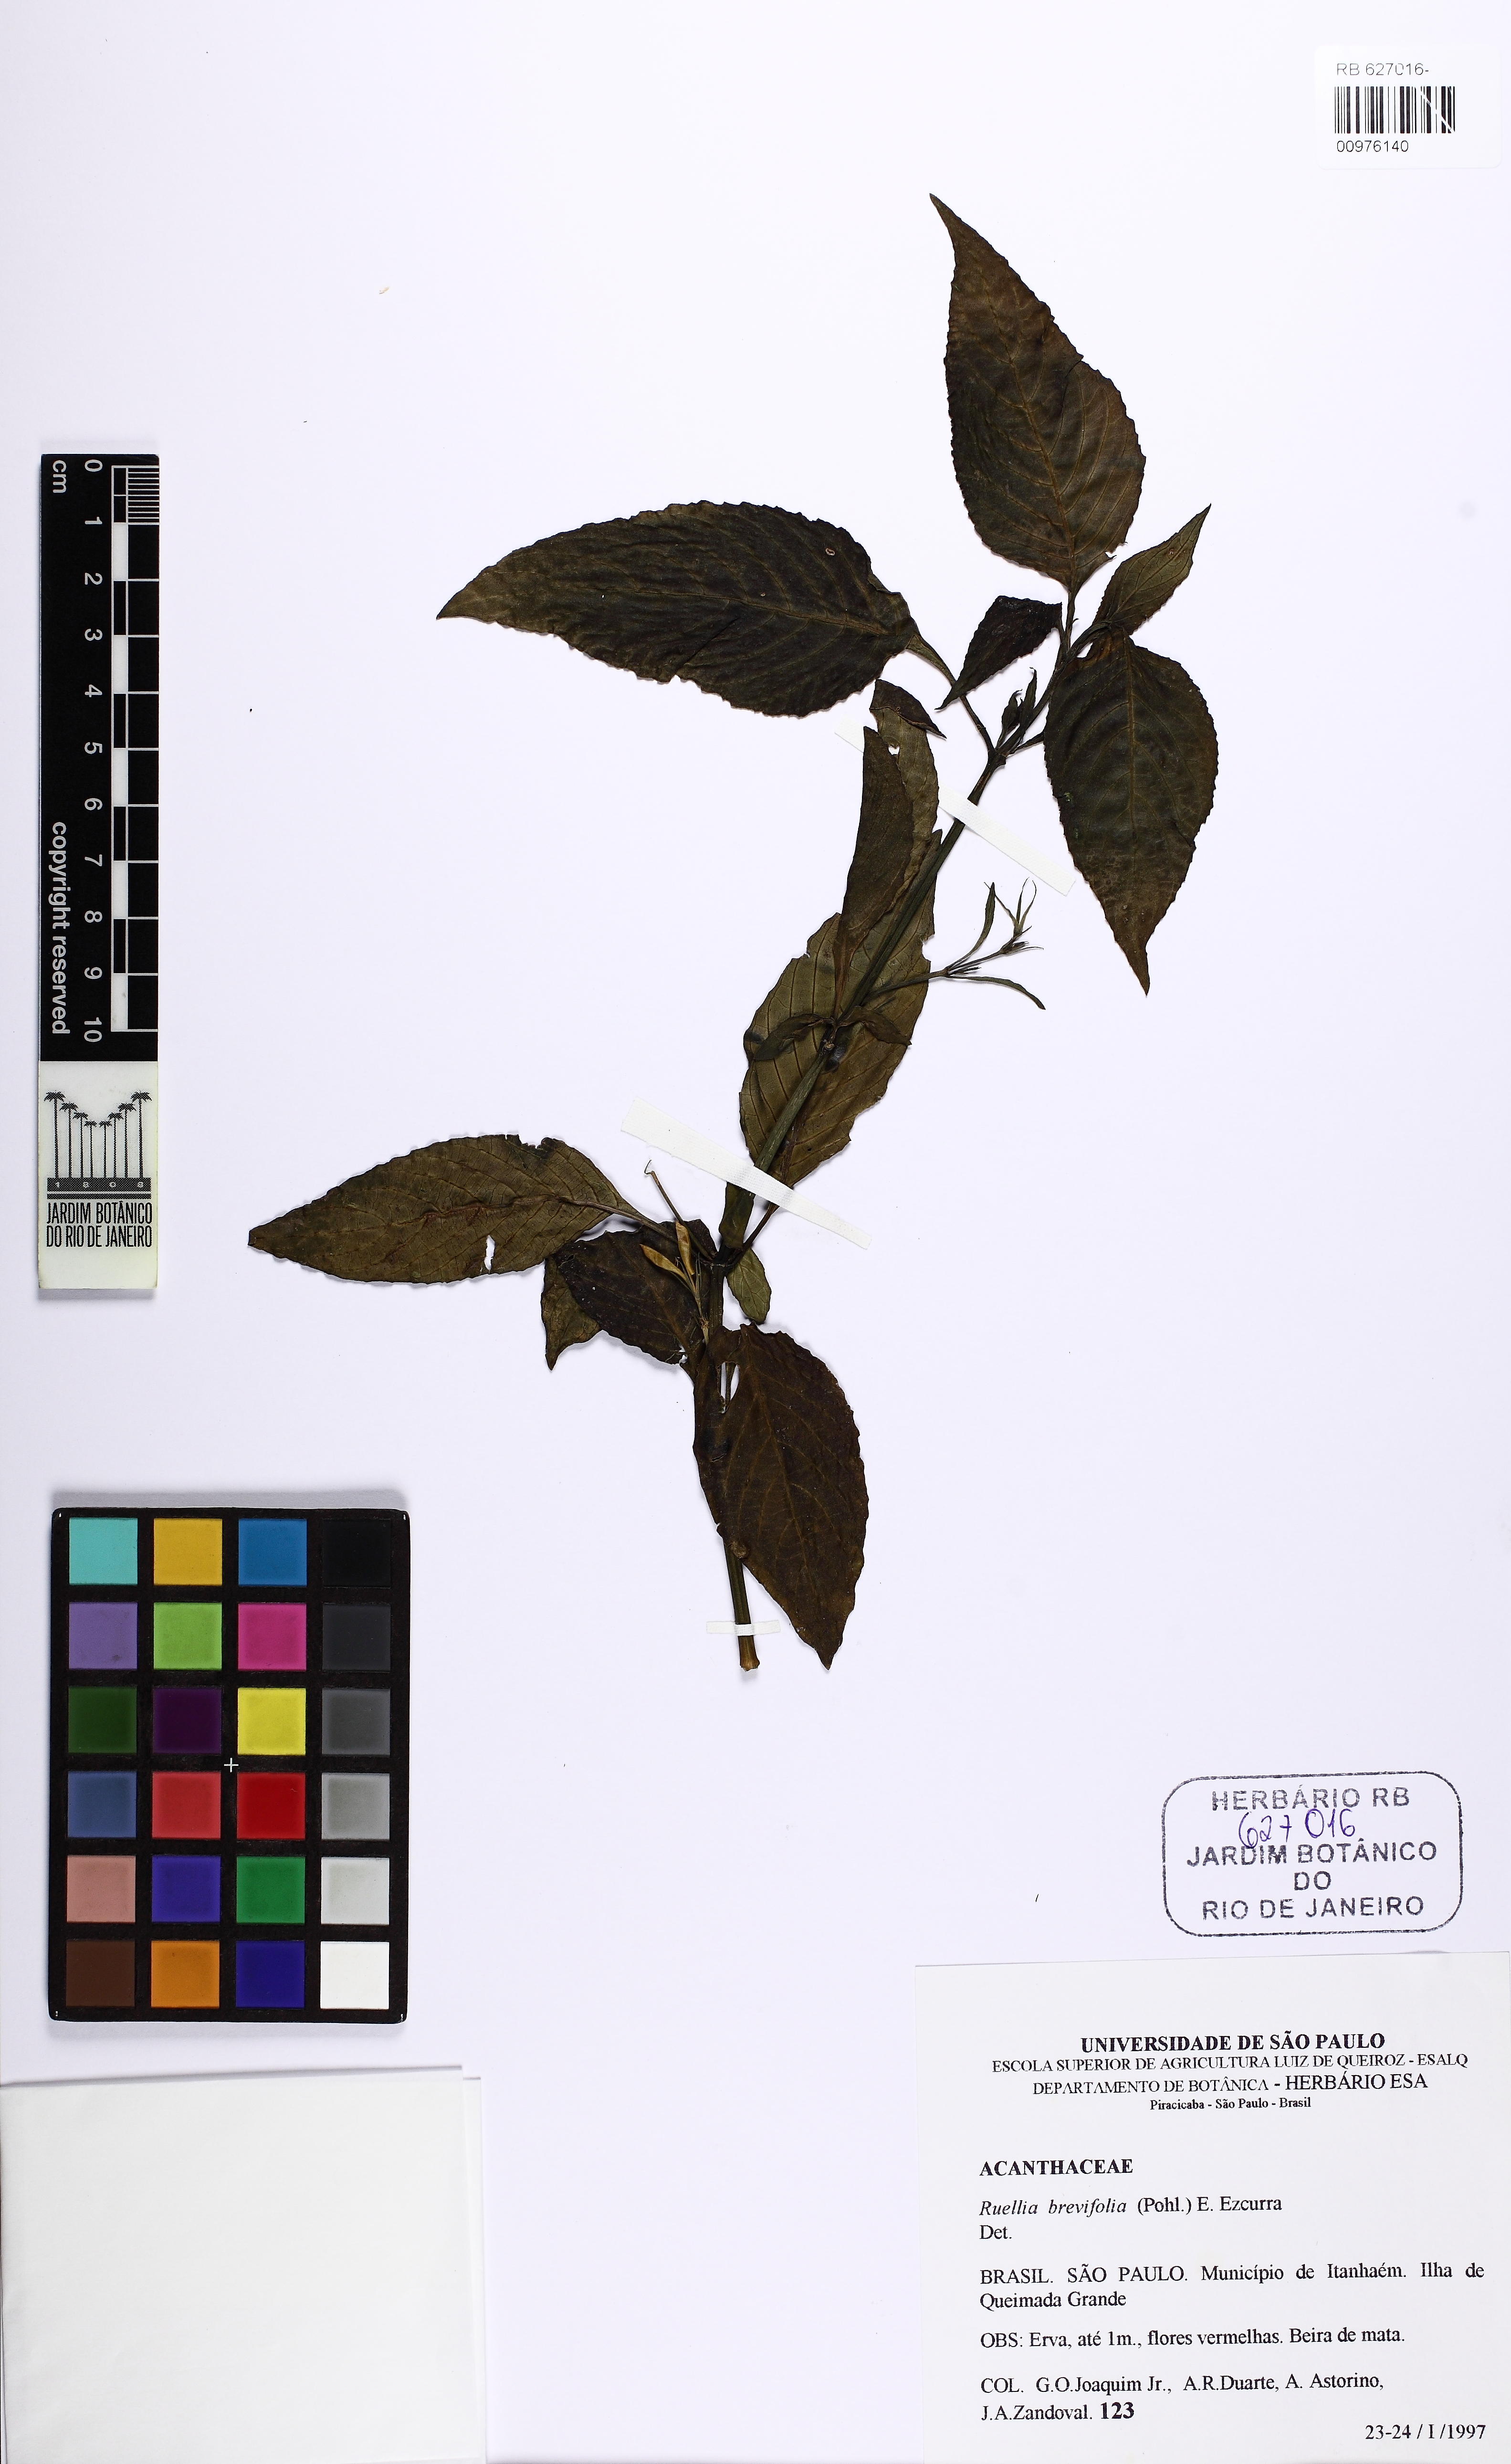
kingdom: Plantae
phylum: Tracheophyta
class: Magnoliopsida
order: Lamiales
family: Acanthaceae
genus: Ruellia
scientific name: Ruellia brevifolia
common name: Tropical wild petunia
